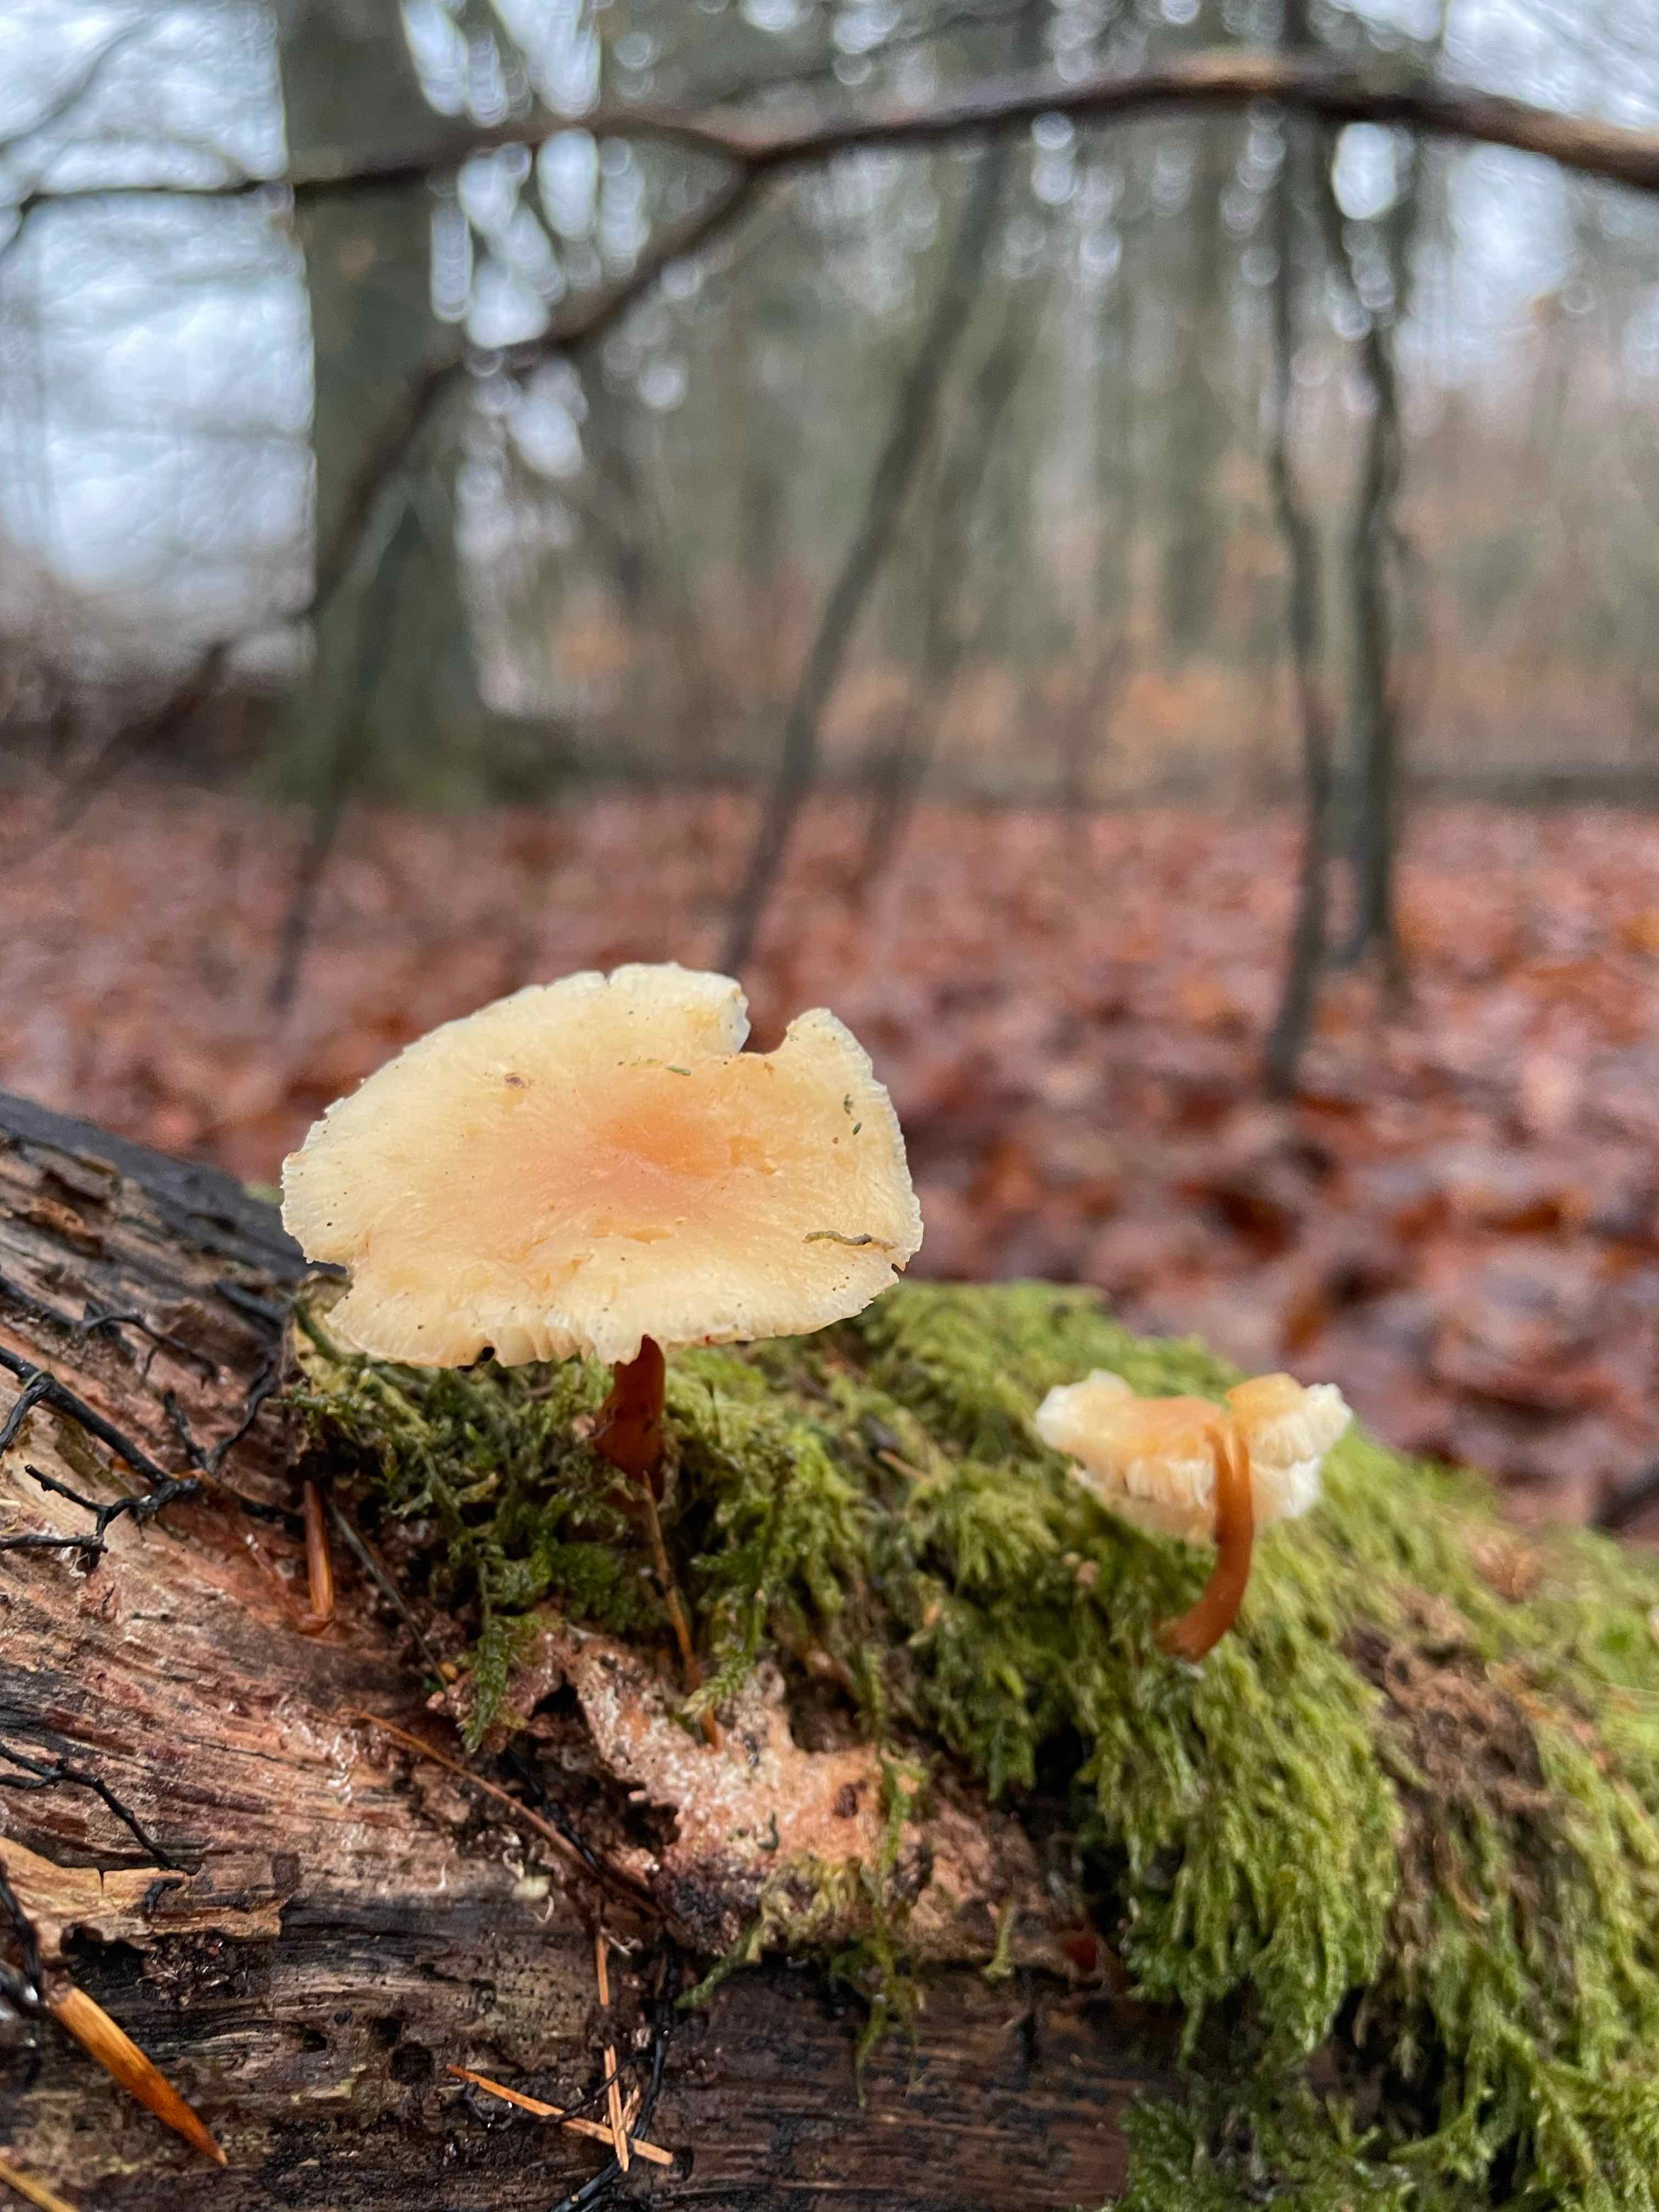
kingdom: Fungi
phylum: Basidiomycota
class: Agaricomycetes
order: Agaricales
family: Omphalotaceae
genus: Gymnopus
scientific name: Gymnopus
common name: fladhat
